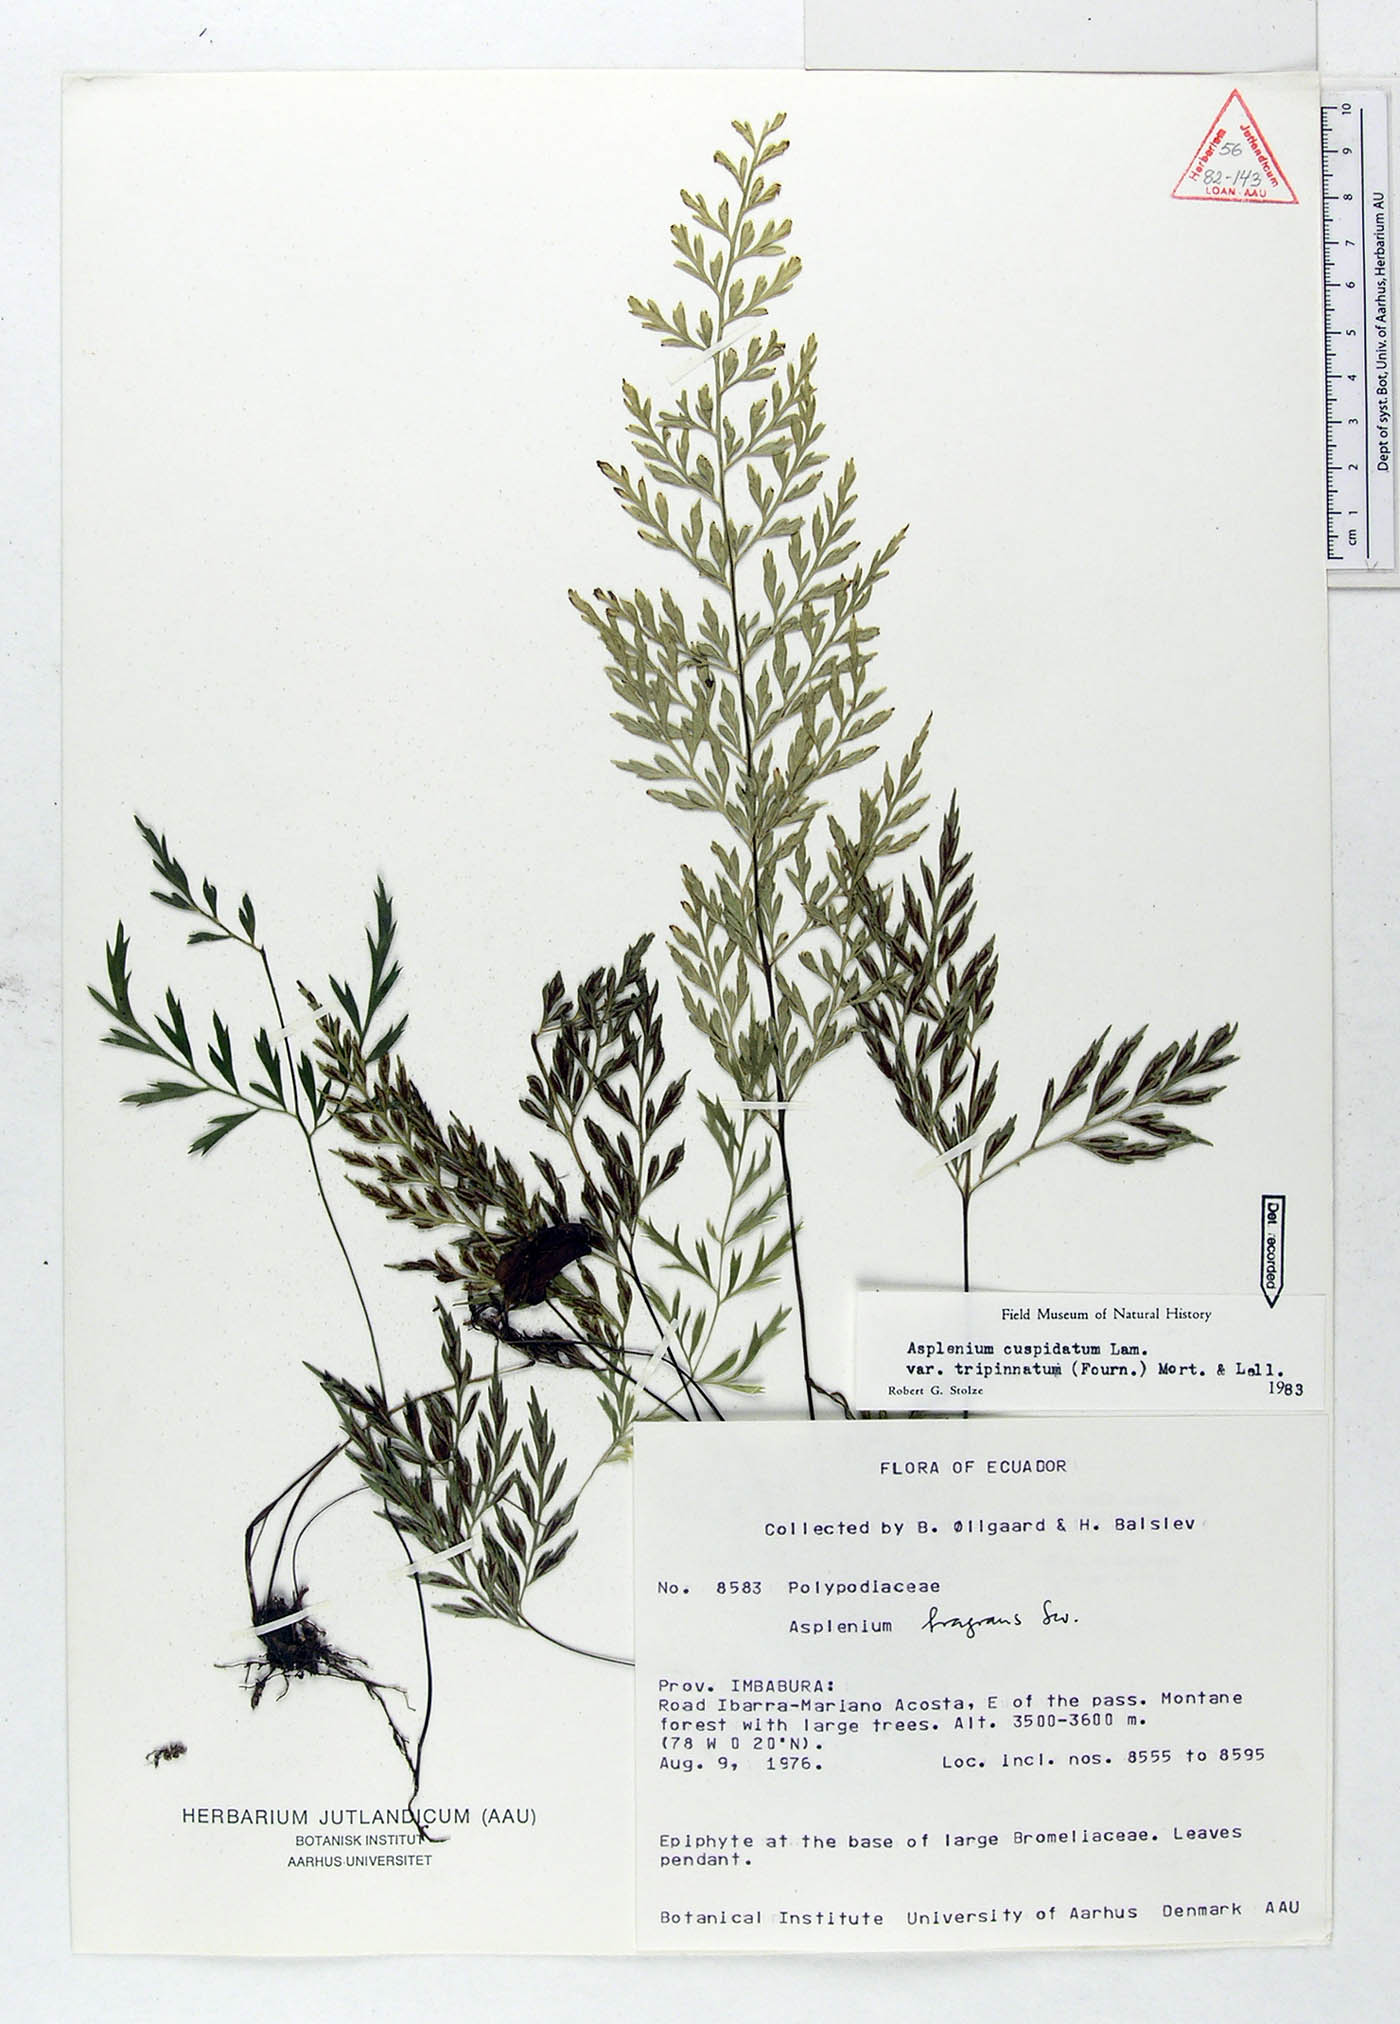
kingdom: Plantae
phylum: Tracheophyta
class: Polypodiopsida
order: Polypodiales
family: Aspleniaceae
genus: Asplenium
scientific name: Asplenium fragrans
